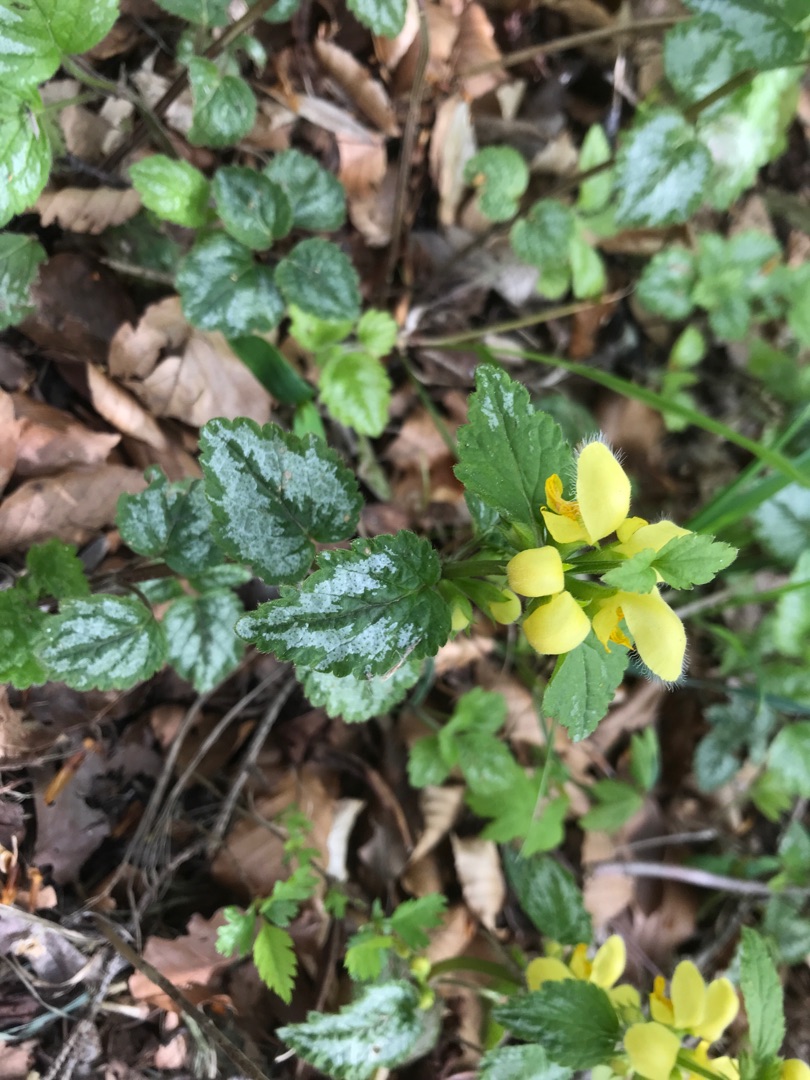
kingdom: Plantae
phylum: Tracheophyta
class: Magnoliopsida
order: Lamiales
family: Lamiaceae
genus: Lamium
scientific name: Lamium galeobdolon
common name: Have-guldnælde
